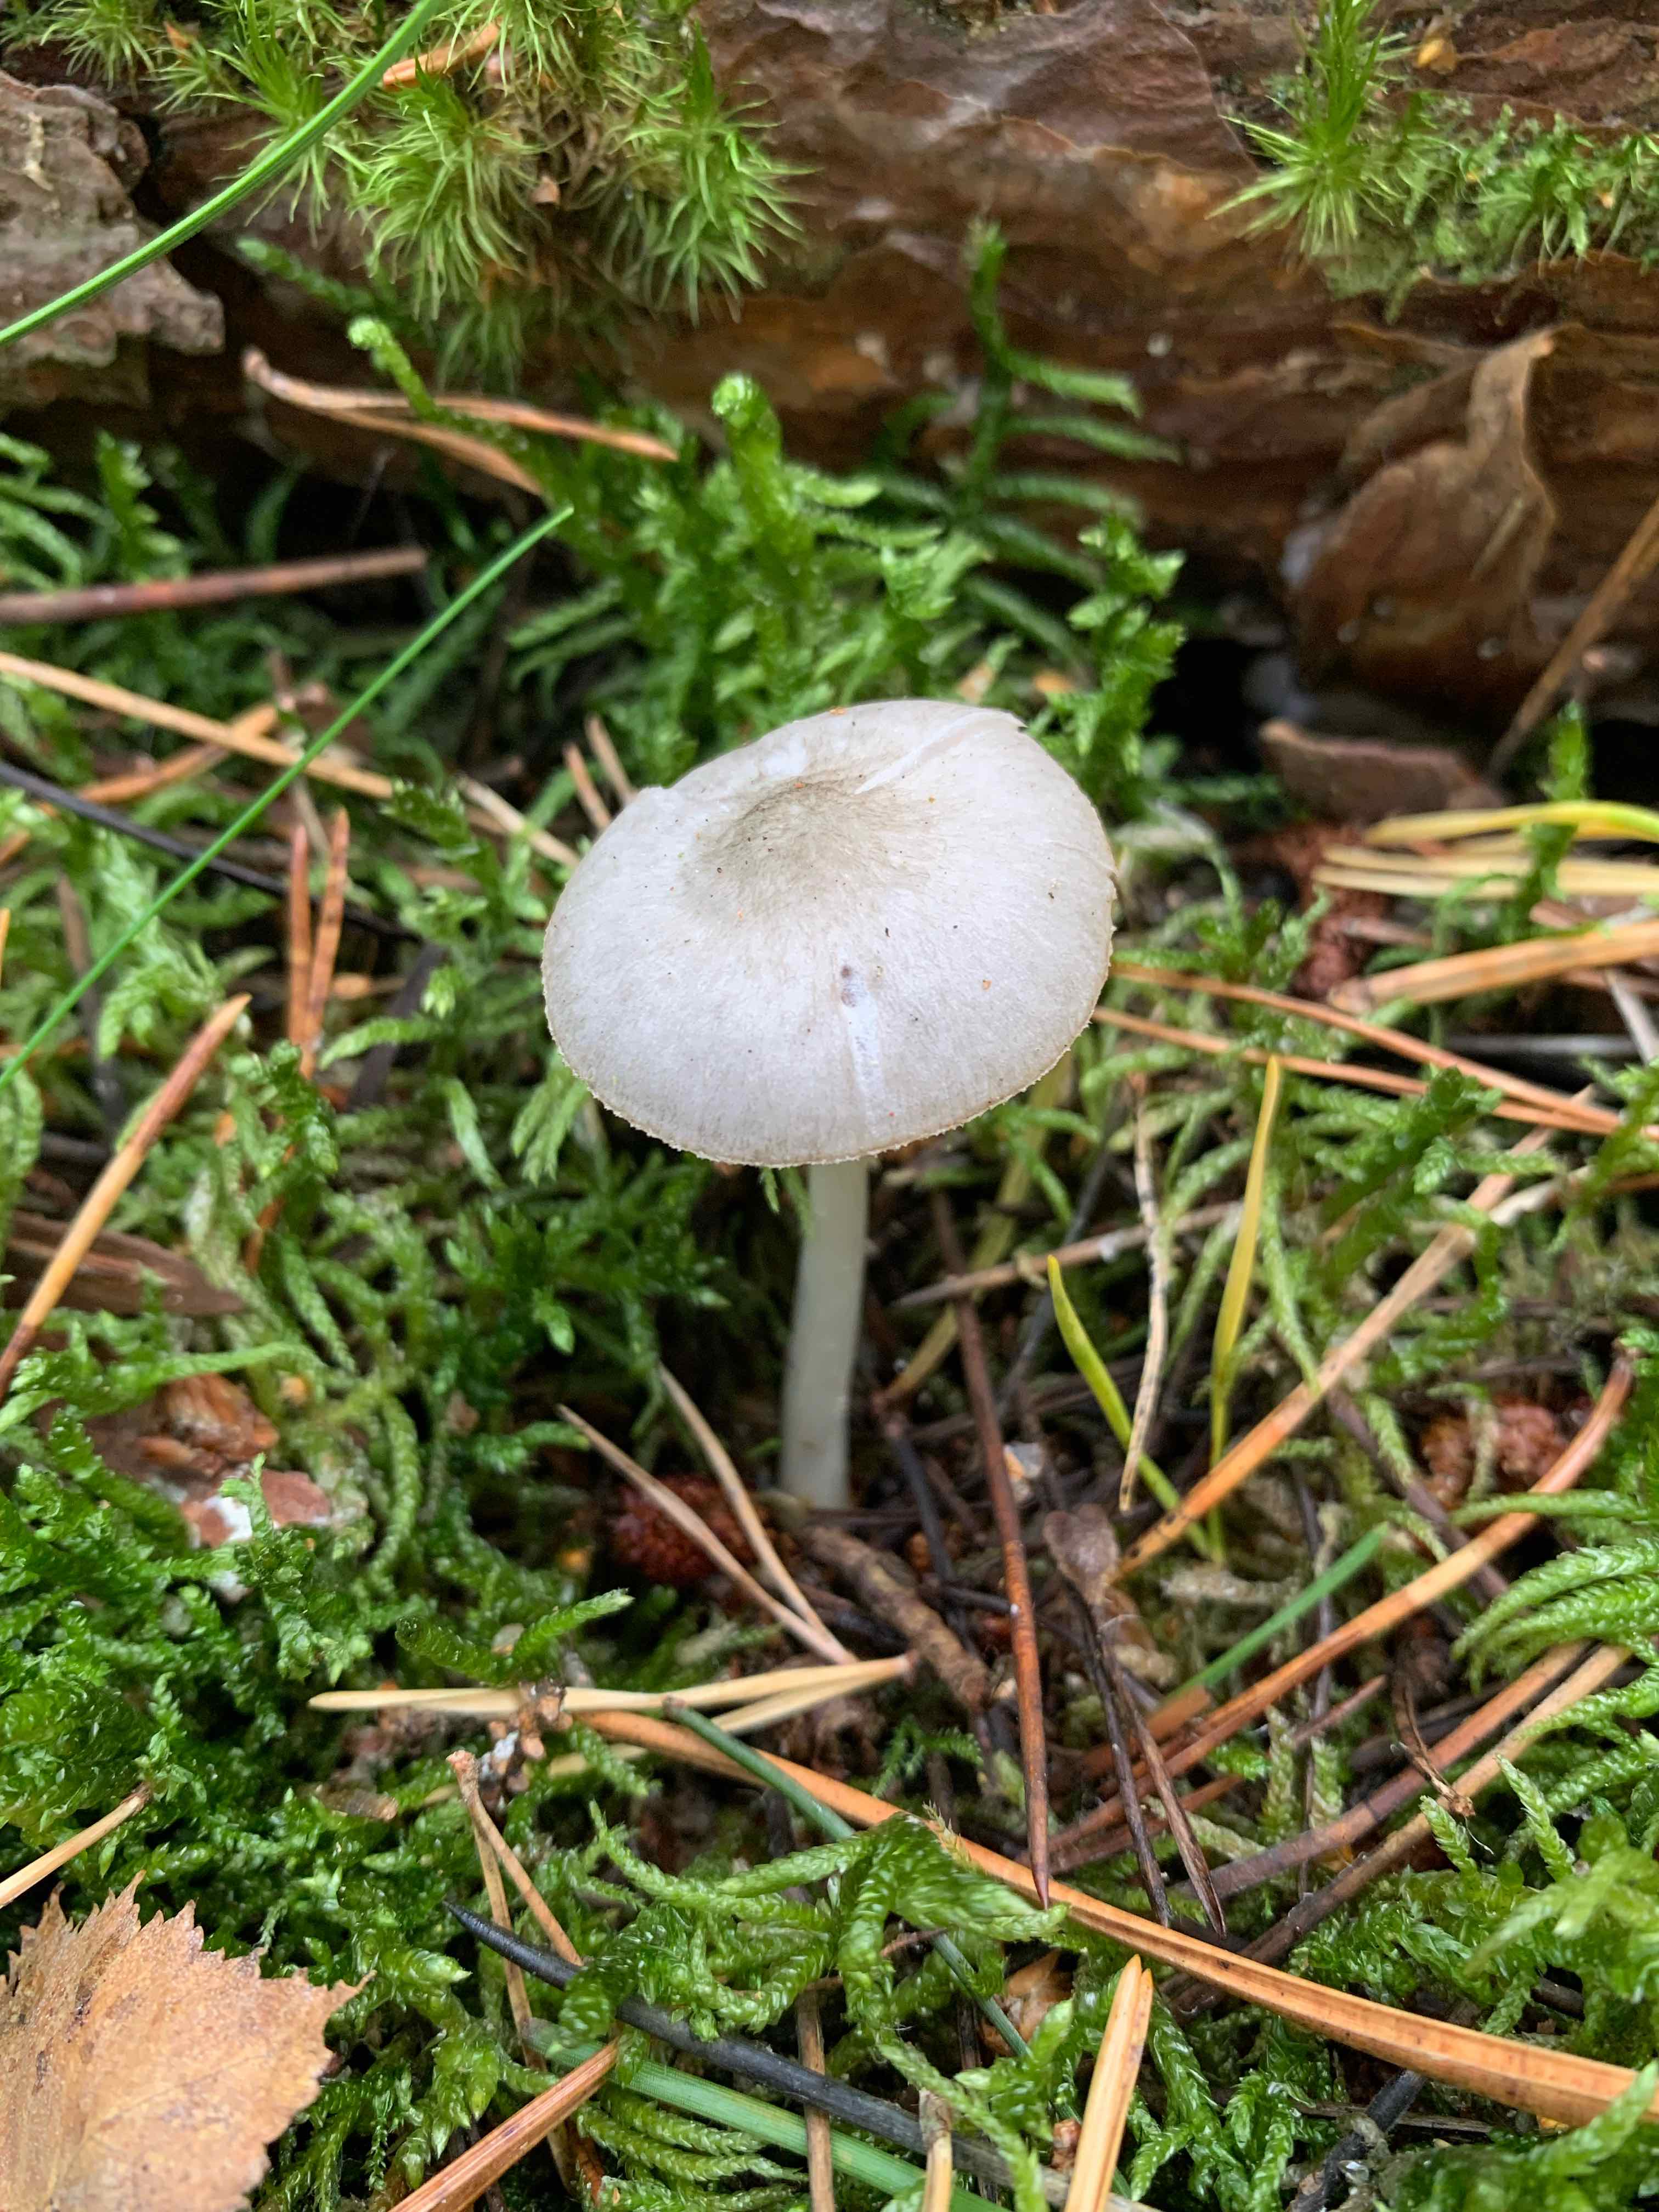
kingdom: Fungi
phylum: Basidiomycota
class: Agaricomycetes
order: Agaricales
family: Pluteaceae
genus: Pluteus
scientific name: Pluteus
